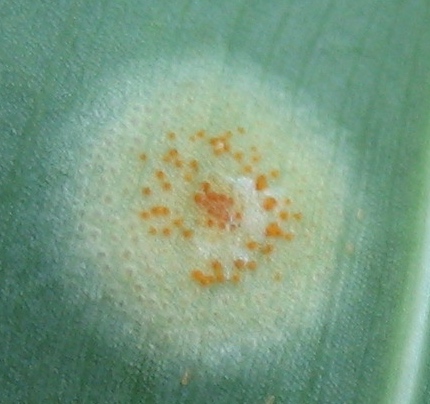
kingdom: Fungi
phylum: Basidiomycota
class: Pucciniomycetes
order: Pucciniales
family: Pucciniaceae
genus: Puccinia
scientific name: Puccinia
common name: tvecellerust
